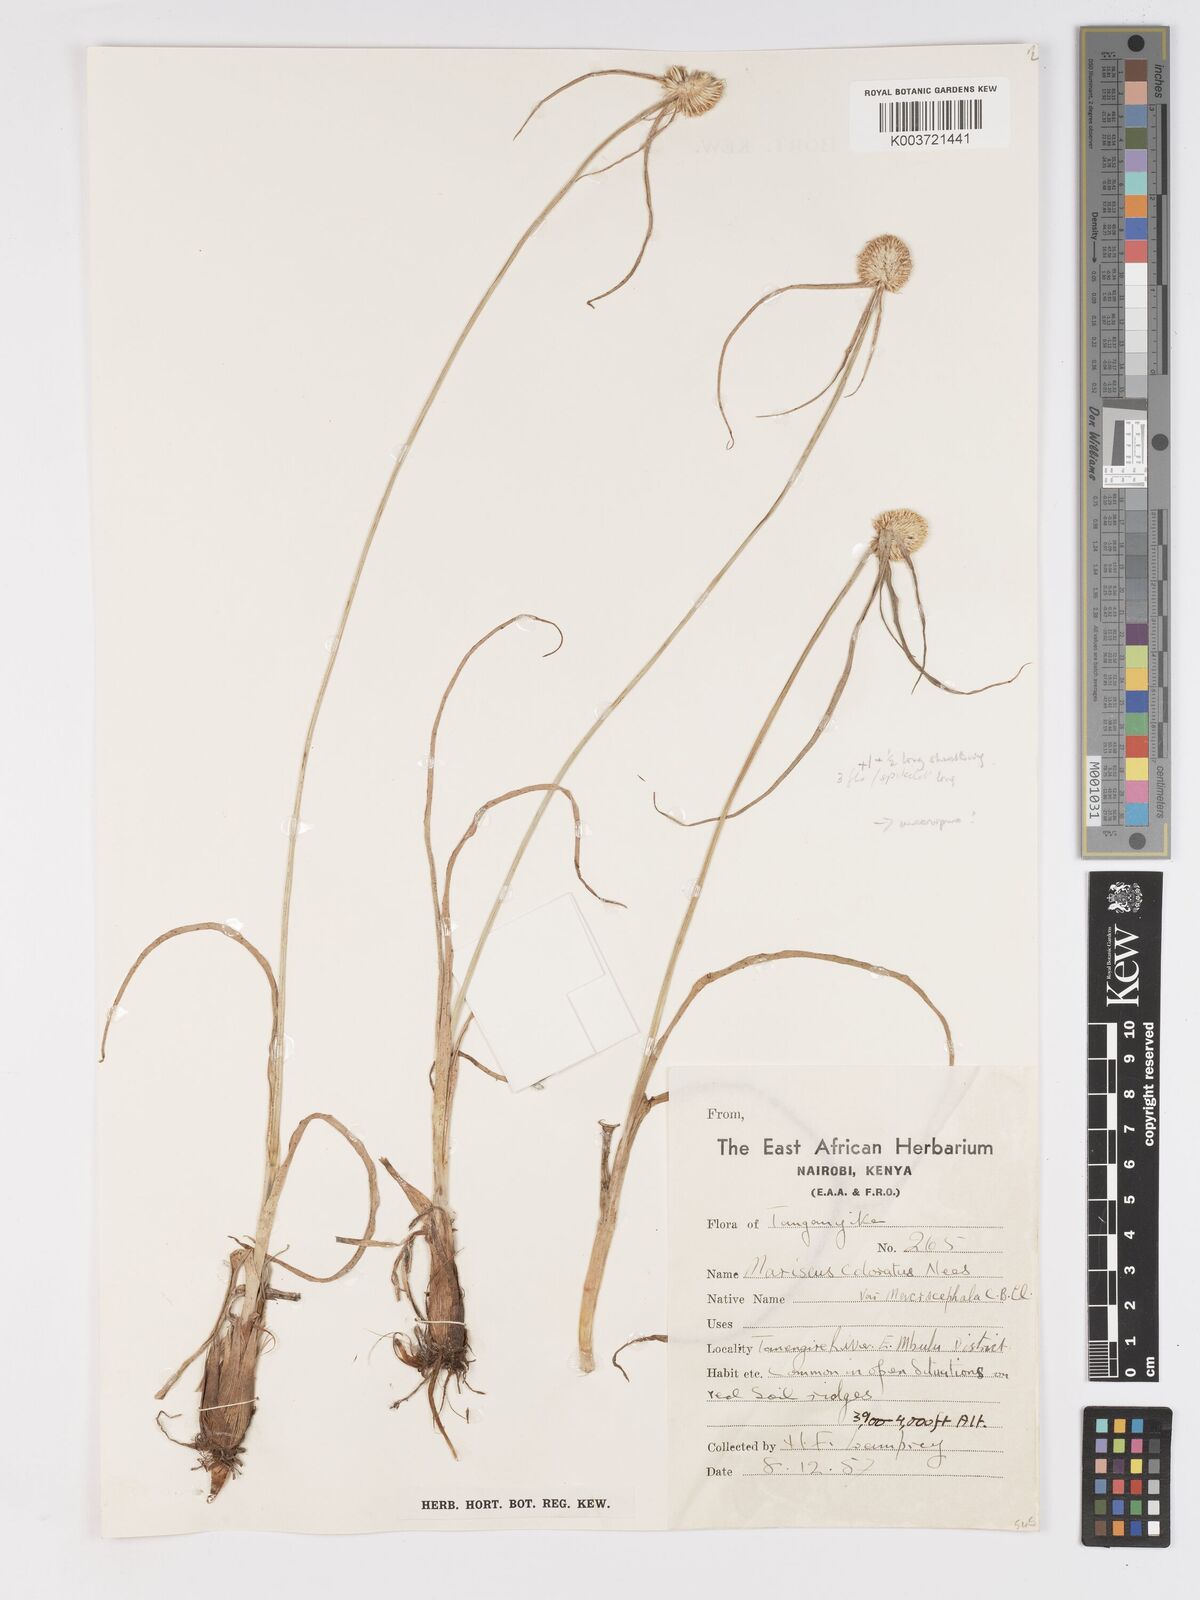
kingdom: Plantae
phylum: Tracheophyta
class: Liliopsida
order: Poales
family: Cyperaceae
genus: Cyperus
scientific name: Cyperus mollipes
